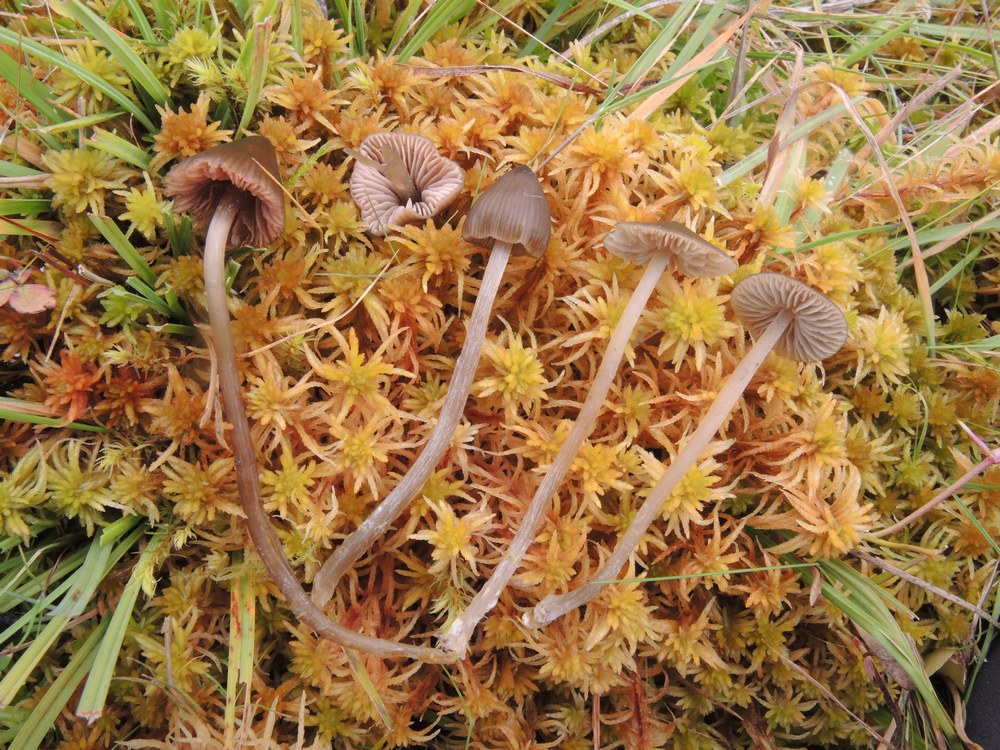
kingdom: Fungi
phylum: Basidiomycota
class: Agaricomycetes
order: Agaricales
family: Entolomataceae
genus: Entoloma
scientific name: Entoloma
